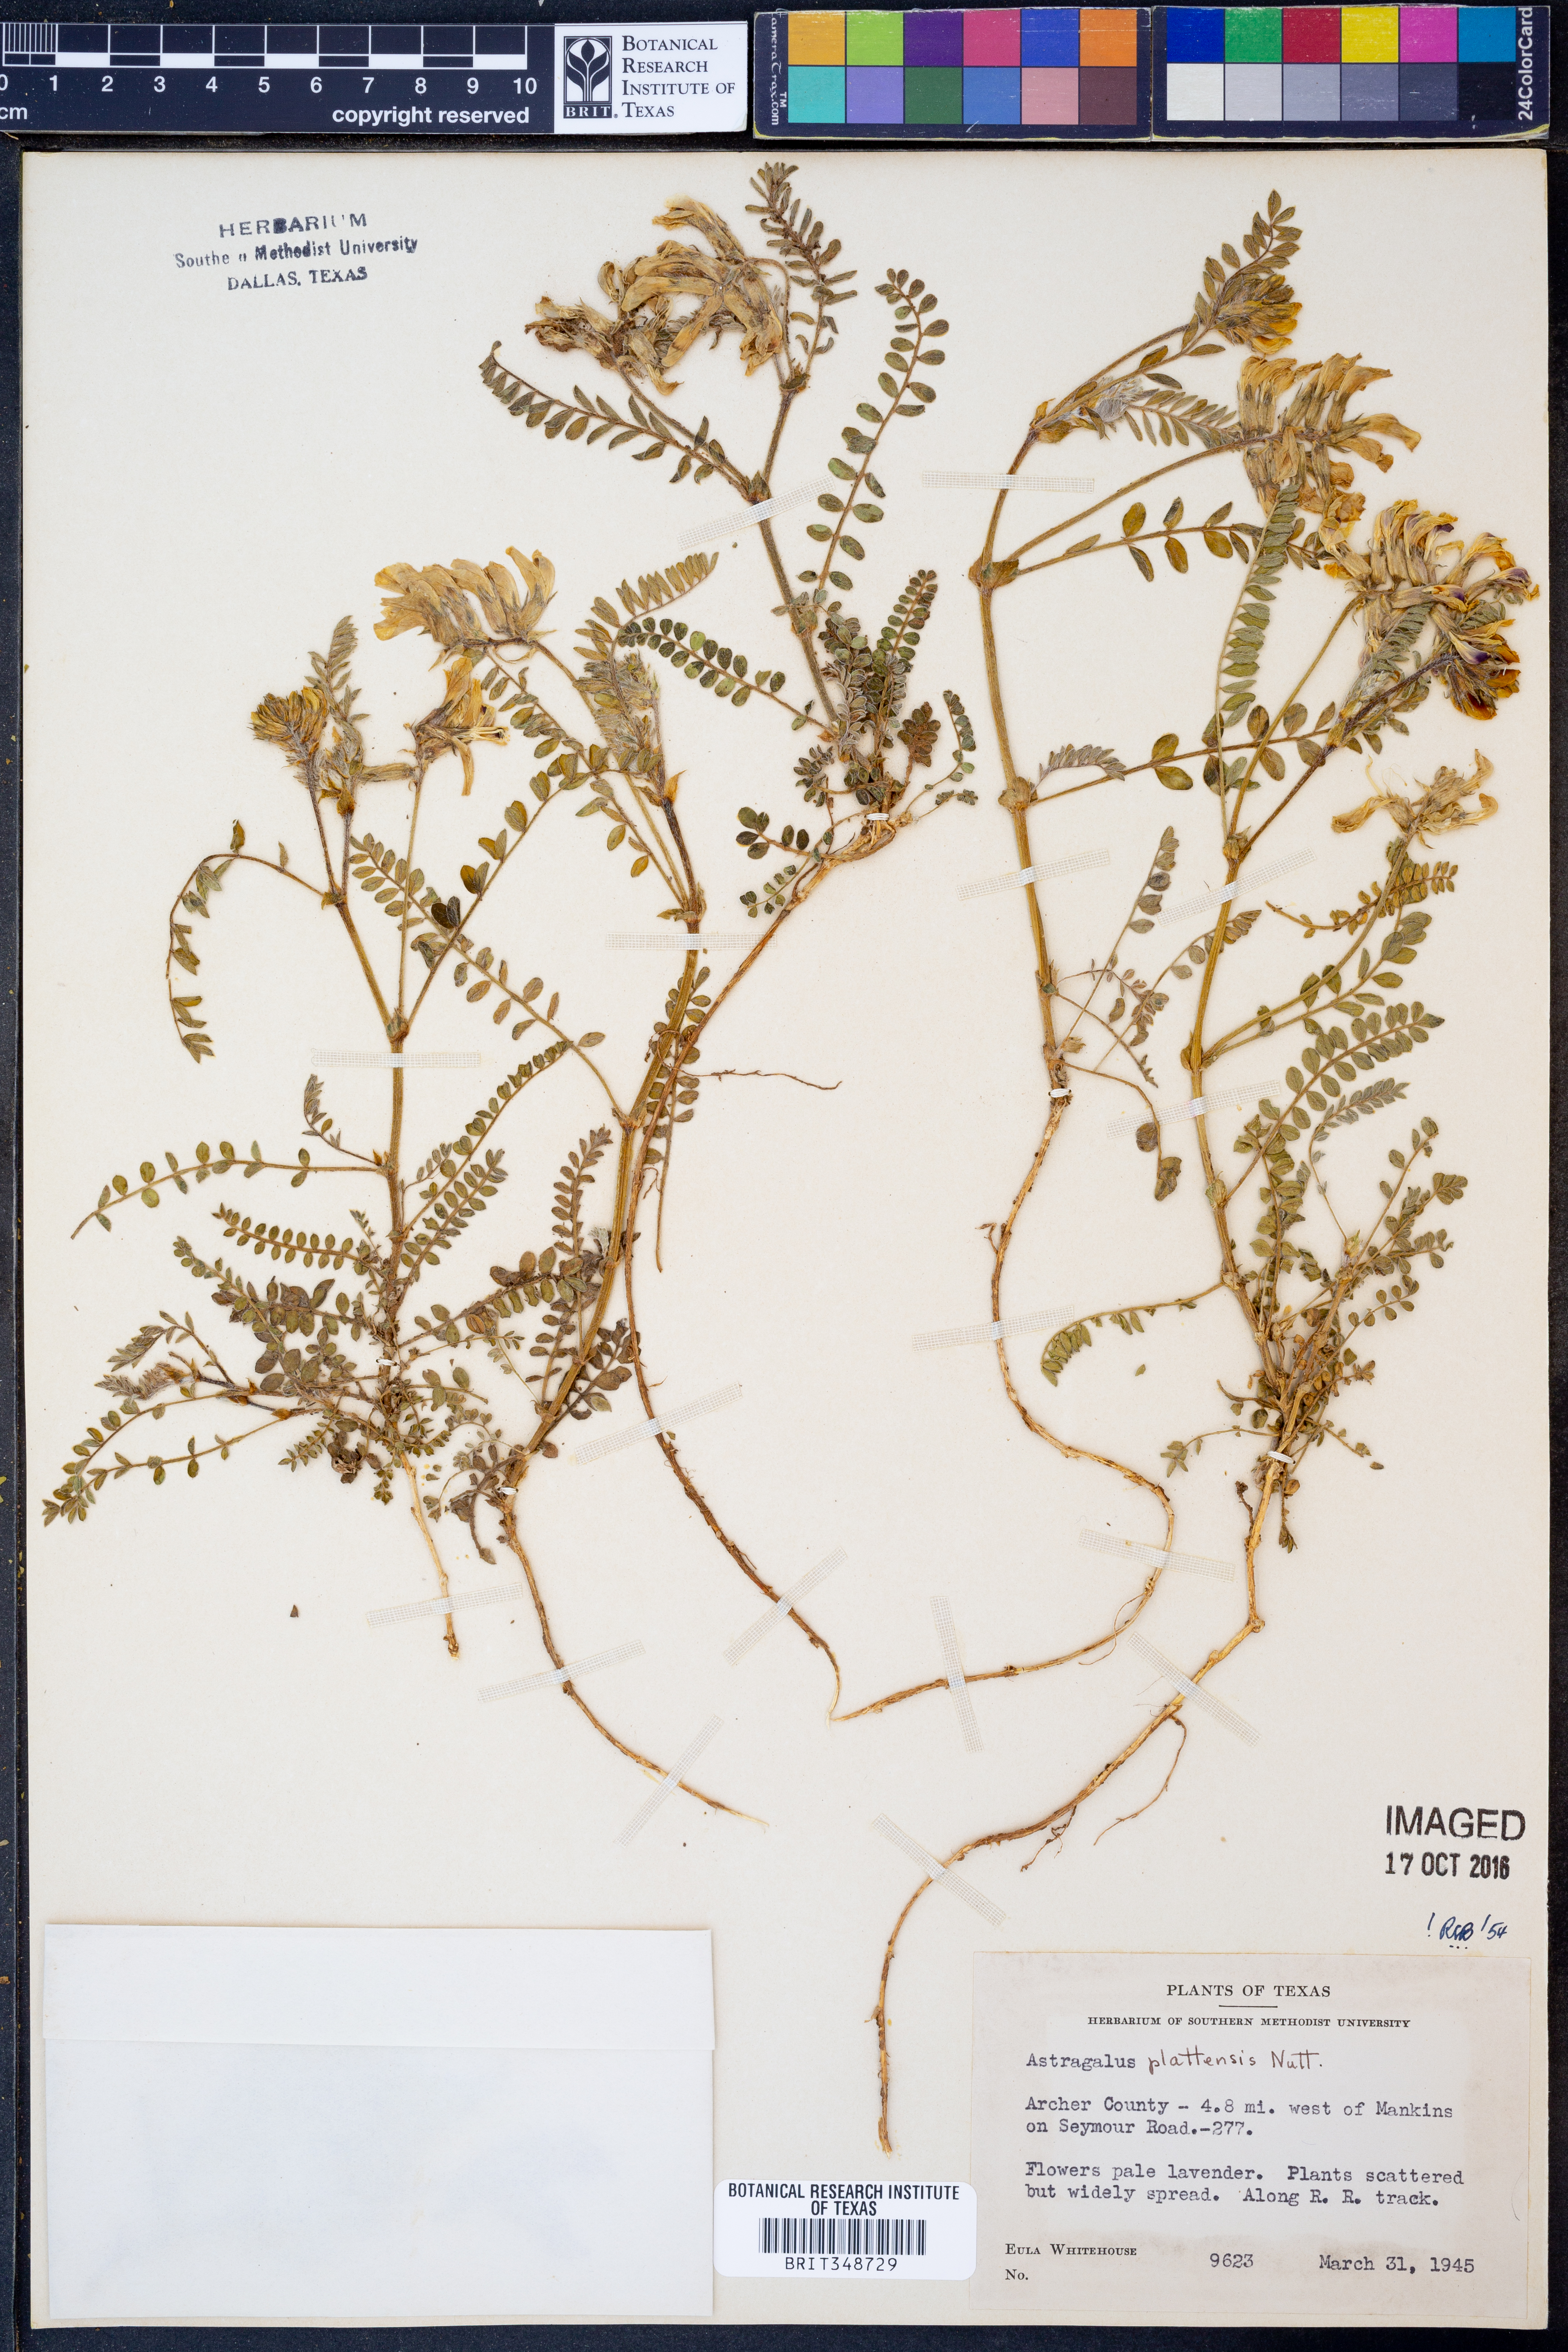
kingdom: Plantae
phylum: Tracheophyta
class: Magnoliopsida
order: Fabales
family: Fabaceae
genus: Astragalus
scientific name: Astragalus plattensis
